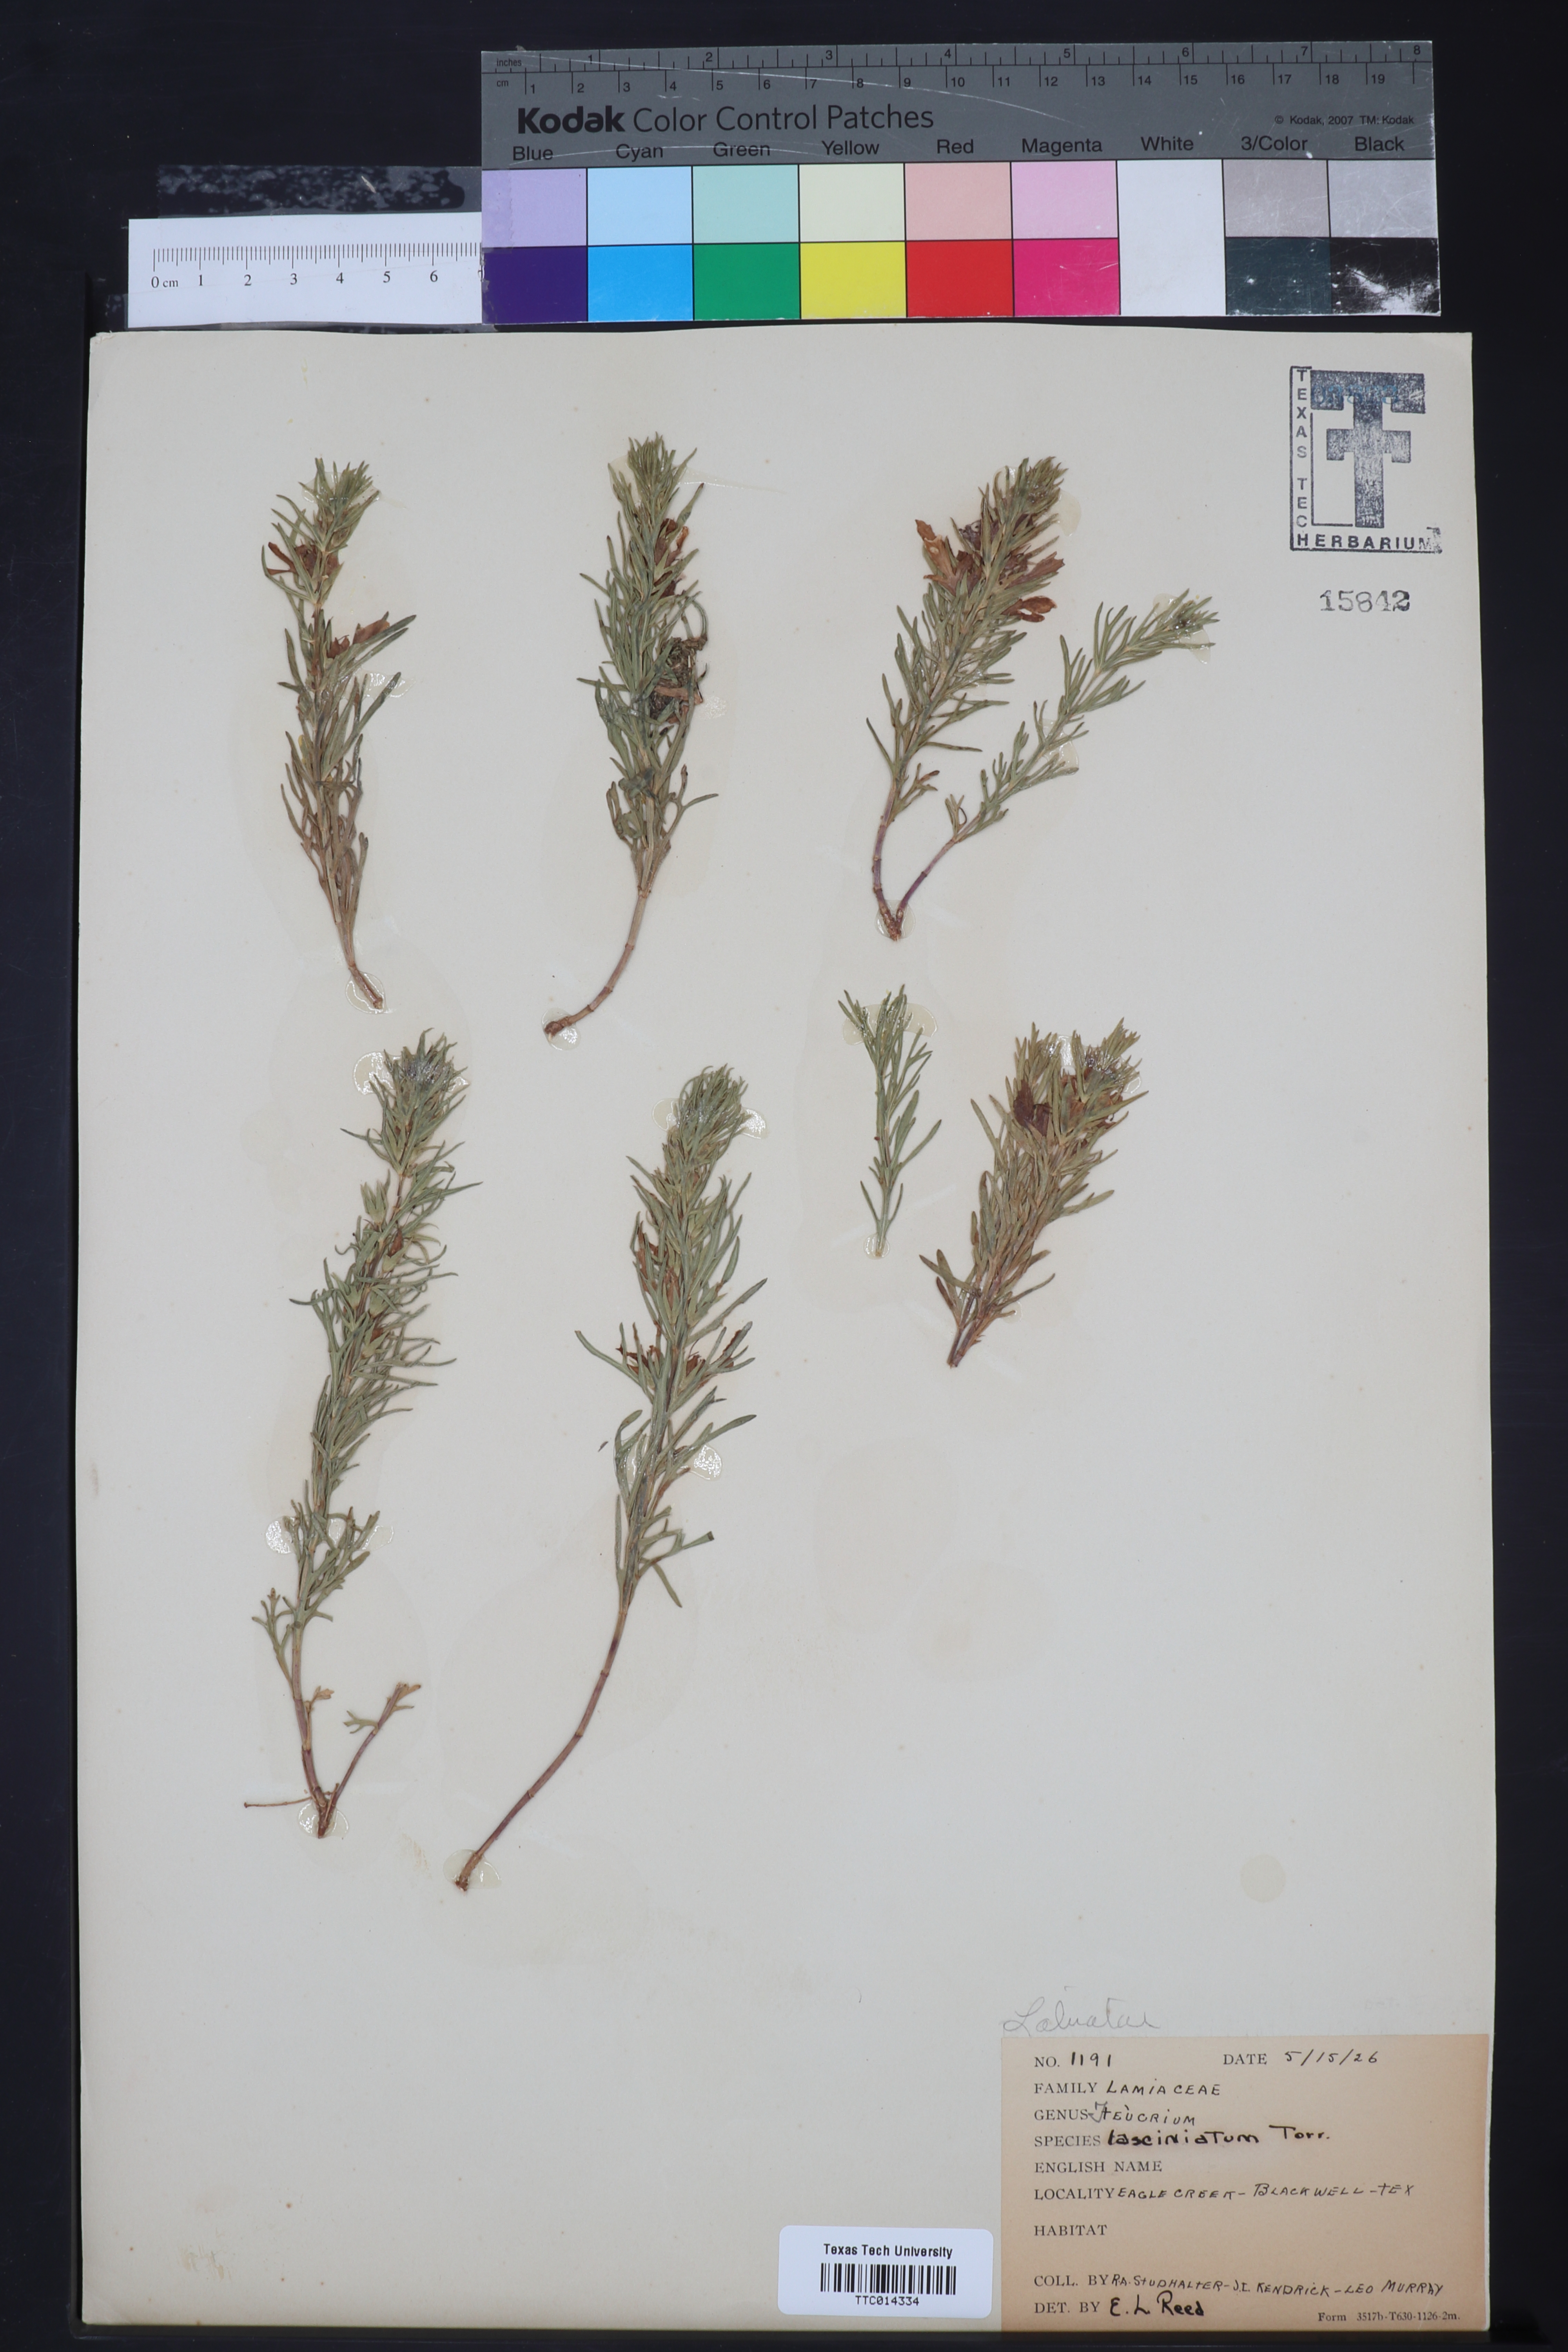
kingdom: Plantae
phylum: Tracheophyta
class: Magnoliopsida
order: Lamiales
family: Lamiaceae
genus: Teucrium
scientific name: Teucrium laciniatum
